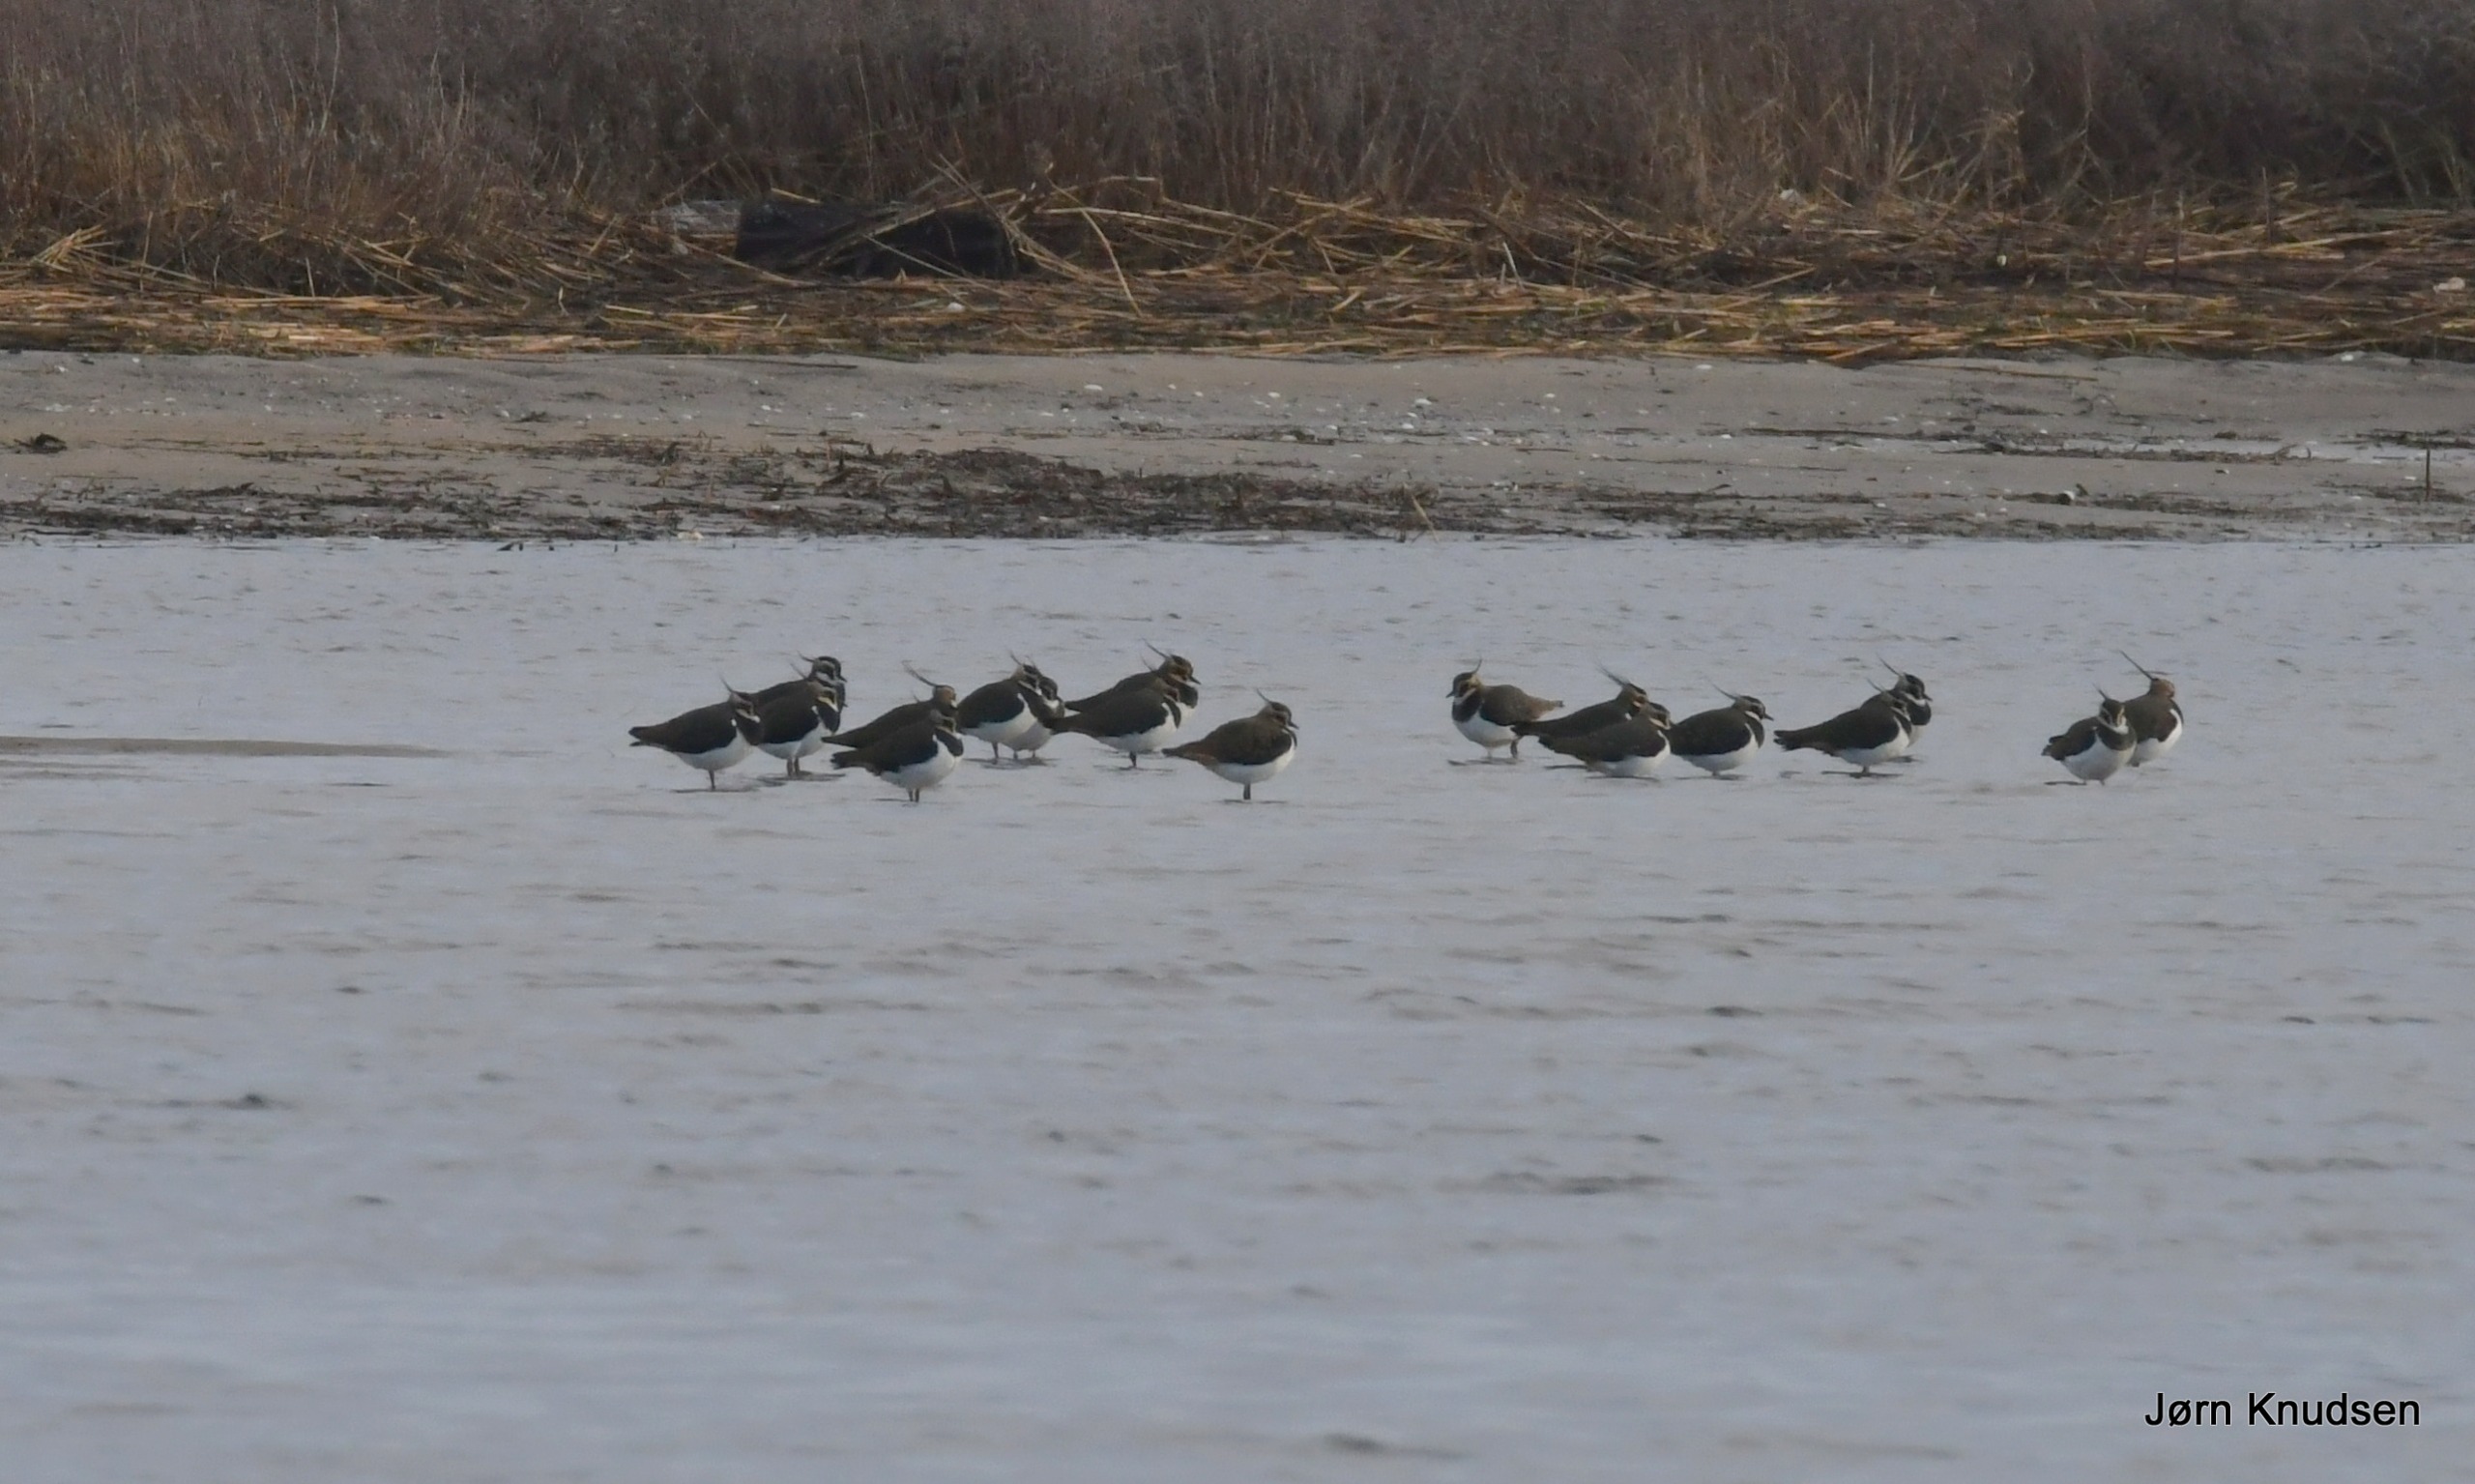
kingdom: Animalia
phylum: Chordata
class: Aves
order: Charadriiformes
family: Charadriidae
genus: Vanellus
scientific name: Vanellus vanellus
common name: Vibe
